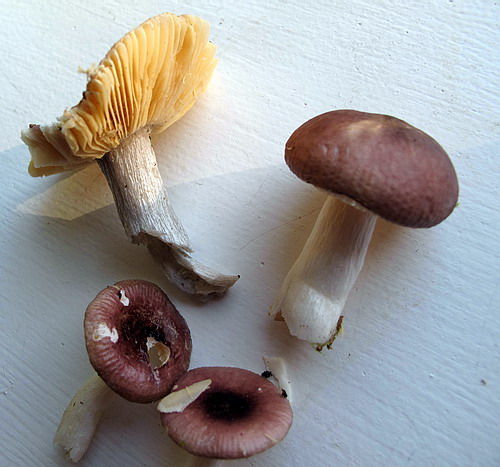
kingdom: Fungi
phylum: Basidiomycota
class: Agaricomycetes
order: Russulales
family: Russulaceae
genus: Russula
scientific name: Russula cessans
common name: fyrre-skørhat
